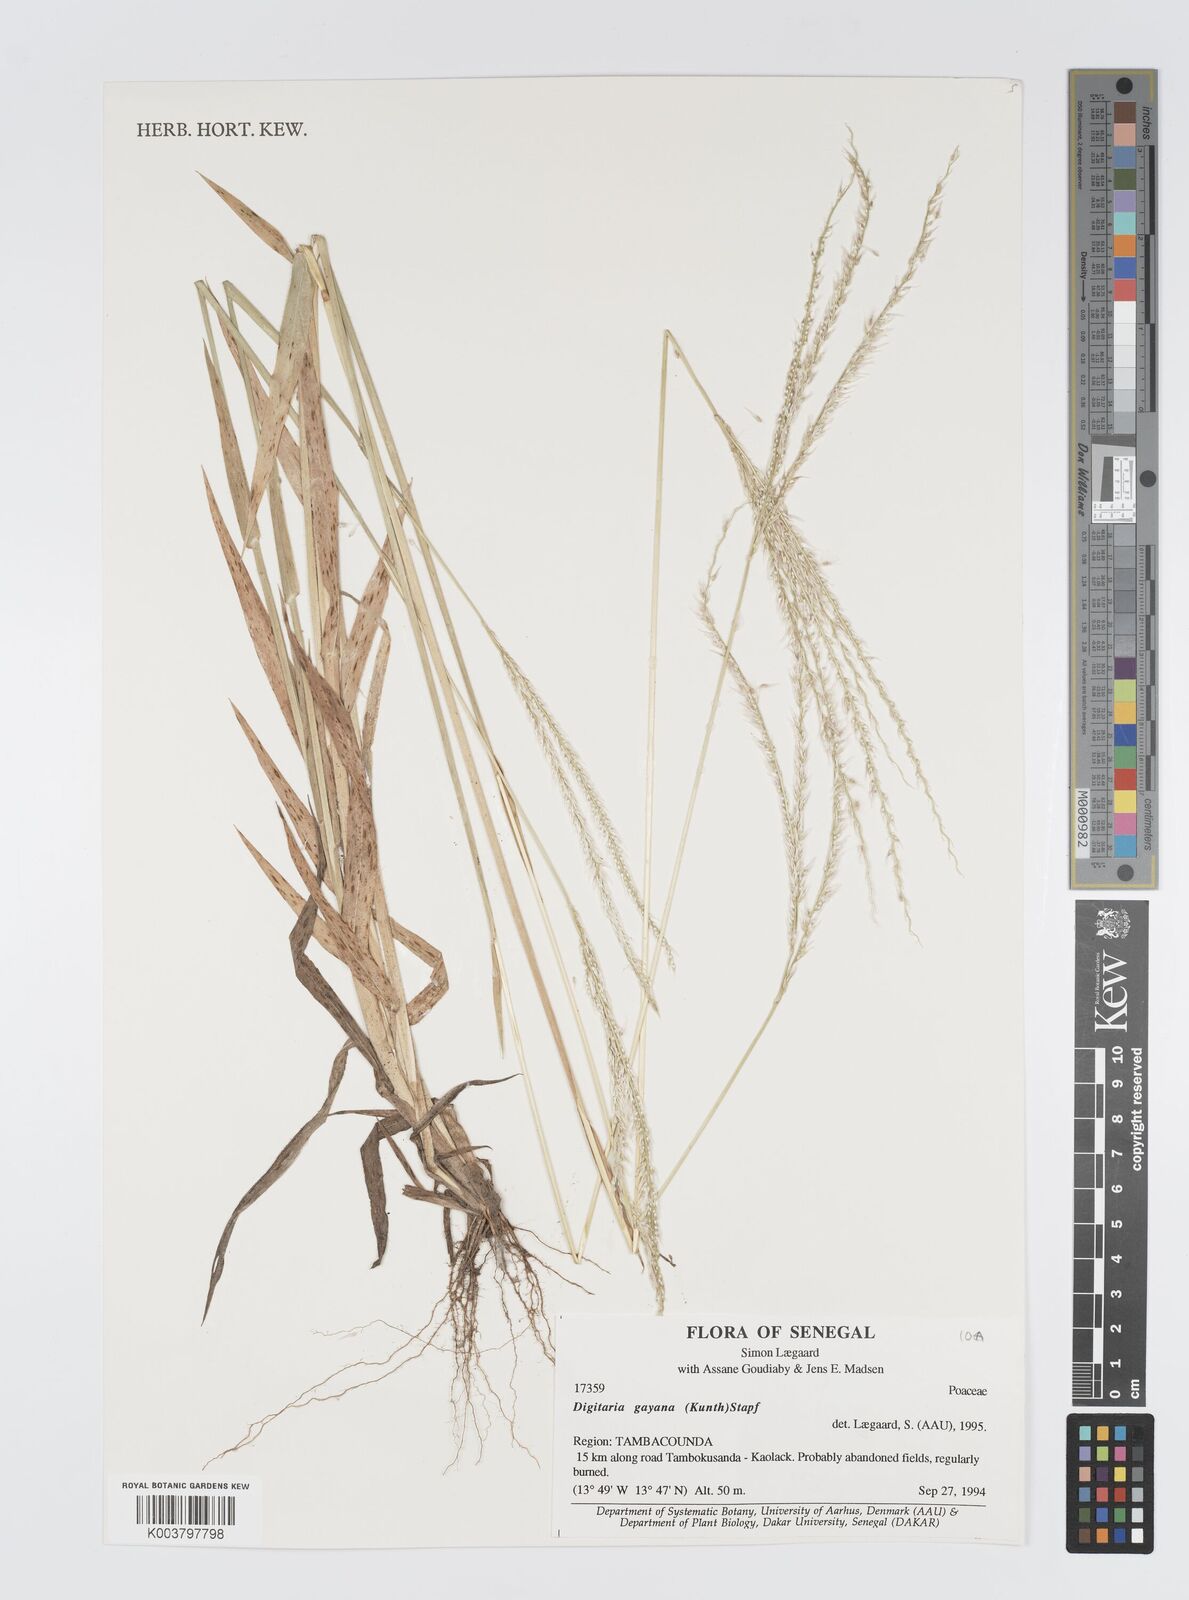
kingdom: Plantae
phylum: Tracheophyta
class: Liliopsida
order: Poales
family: Poaceae
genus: Digitaria
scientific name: Digitaria gayana
